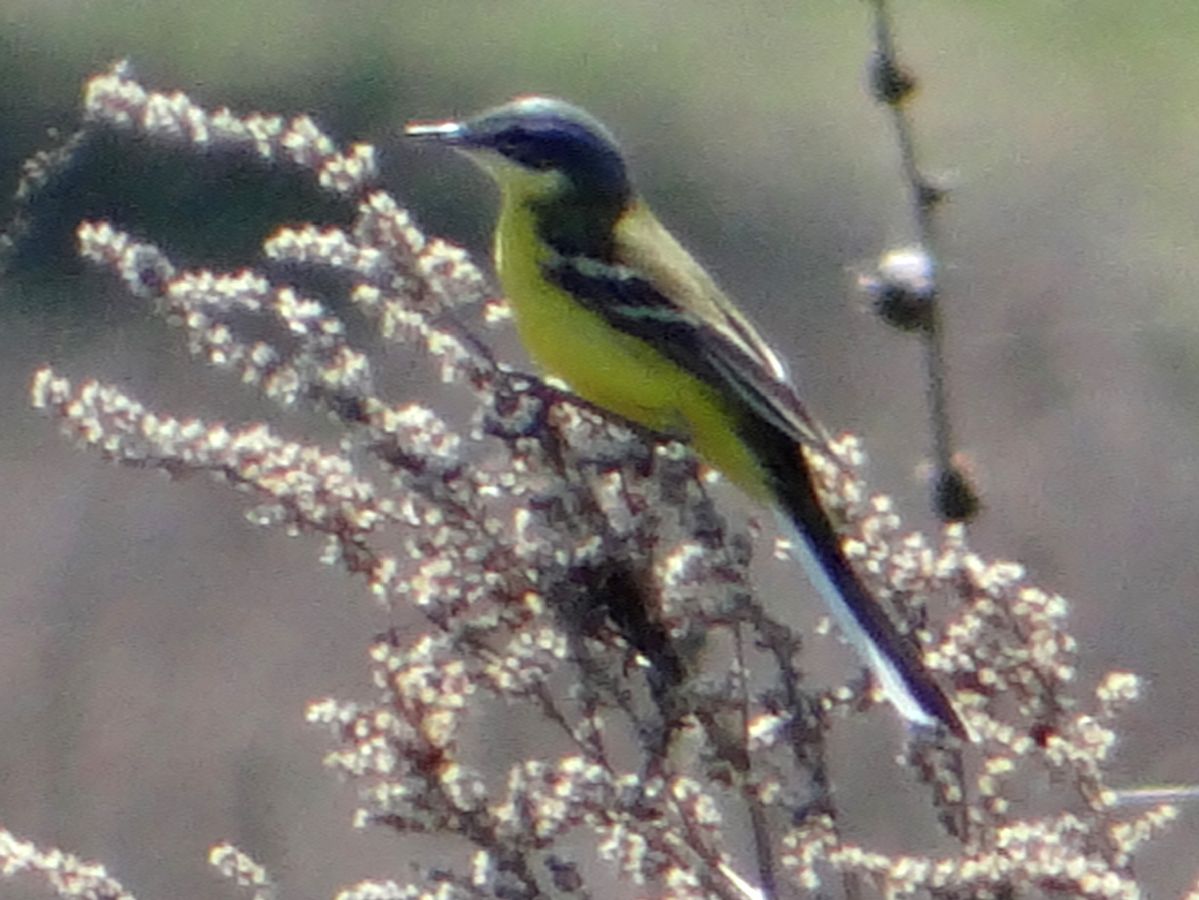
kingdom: Animalia
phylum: Chordata
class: Aves
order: Passeriformes
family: Motacillidae
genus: Motacilla
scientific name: Motacilla flava
